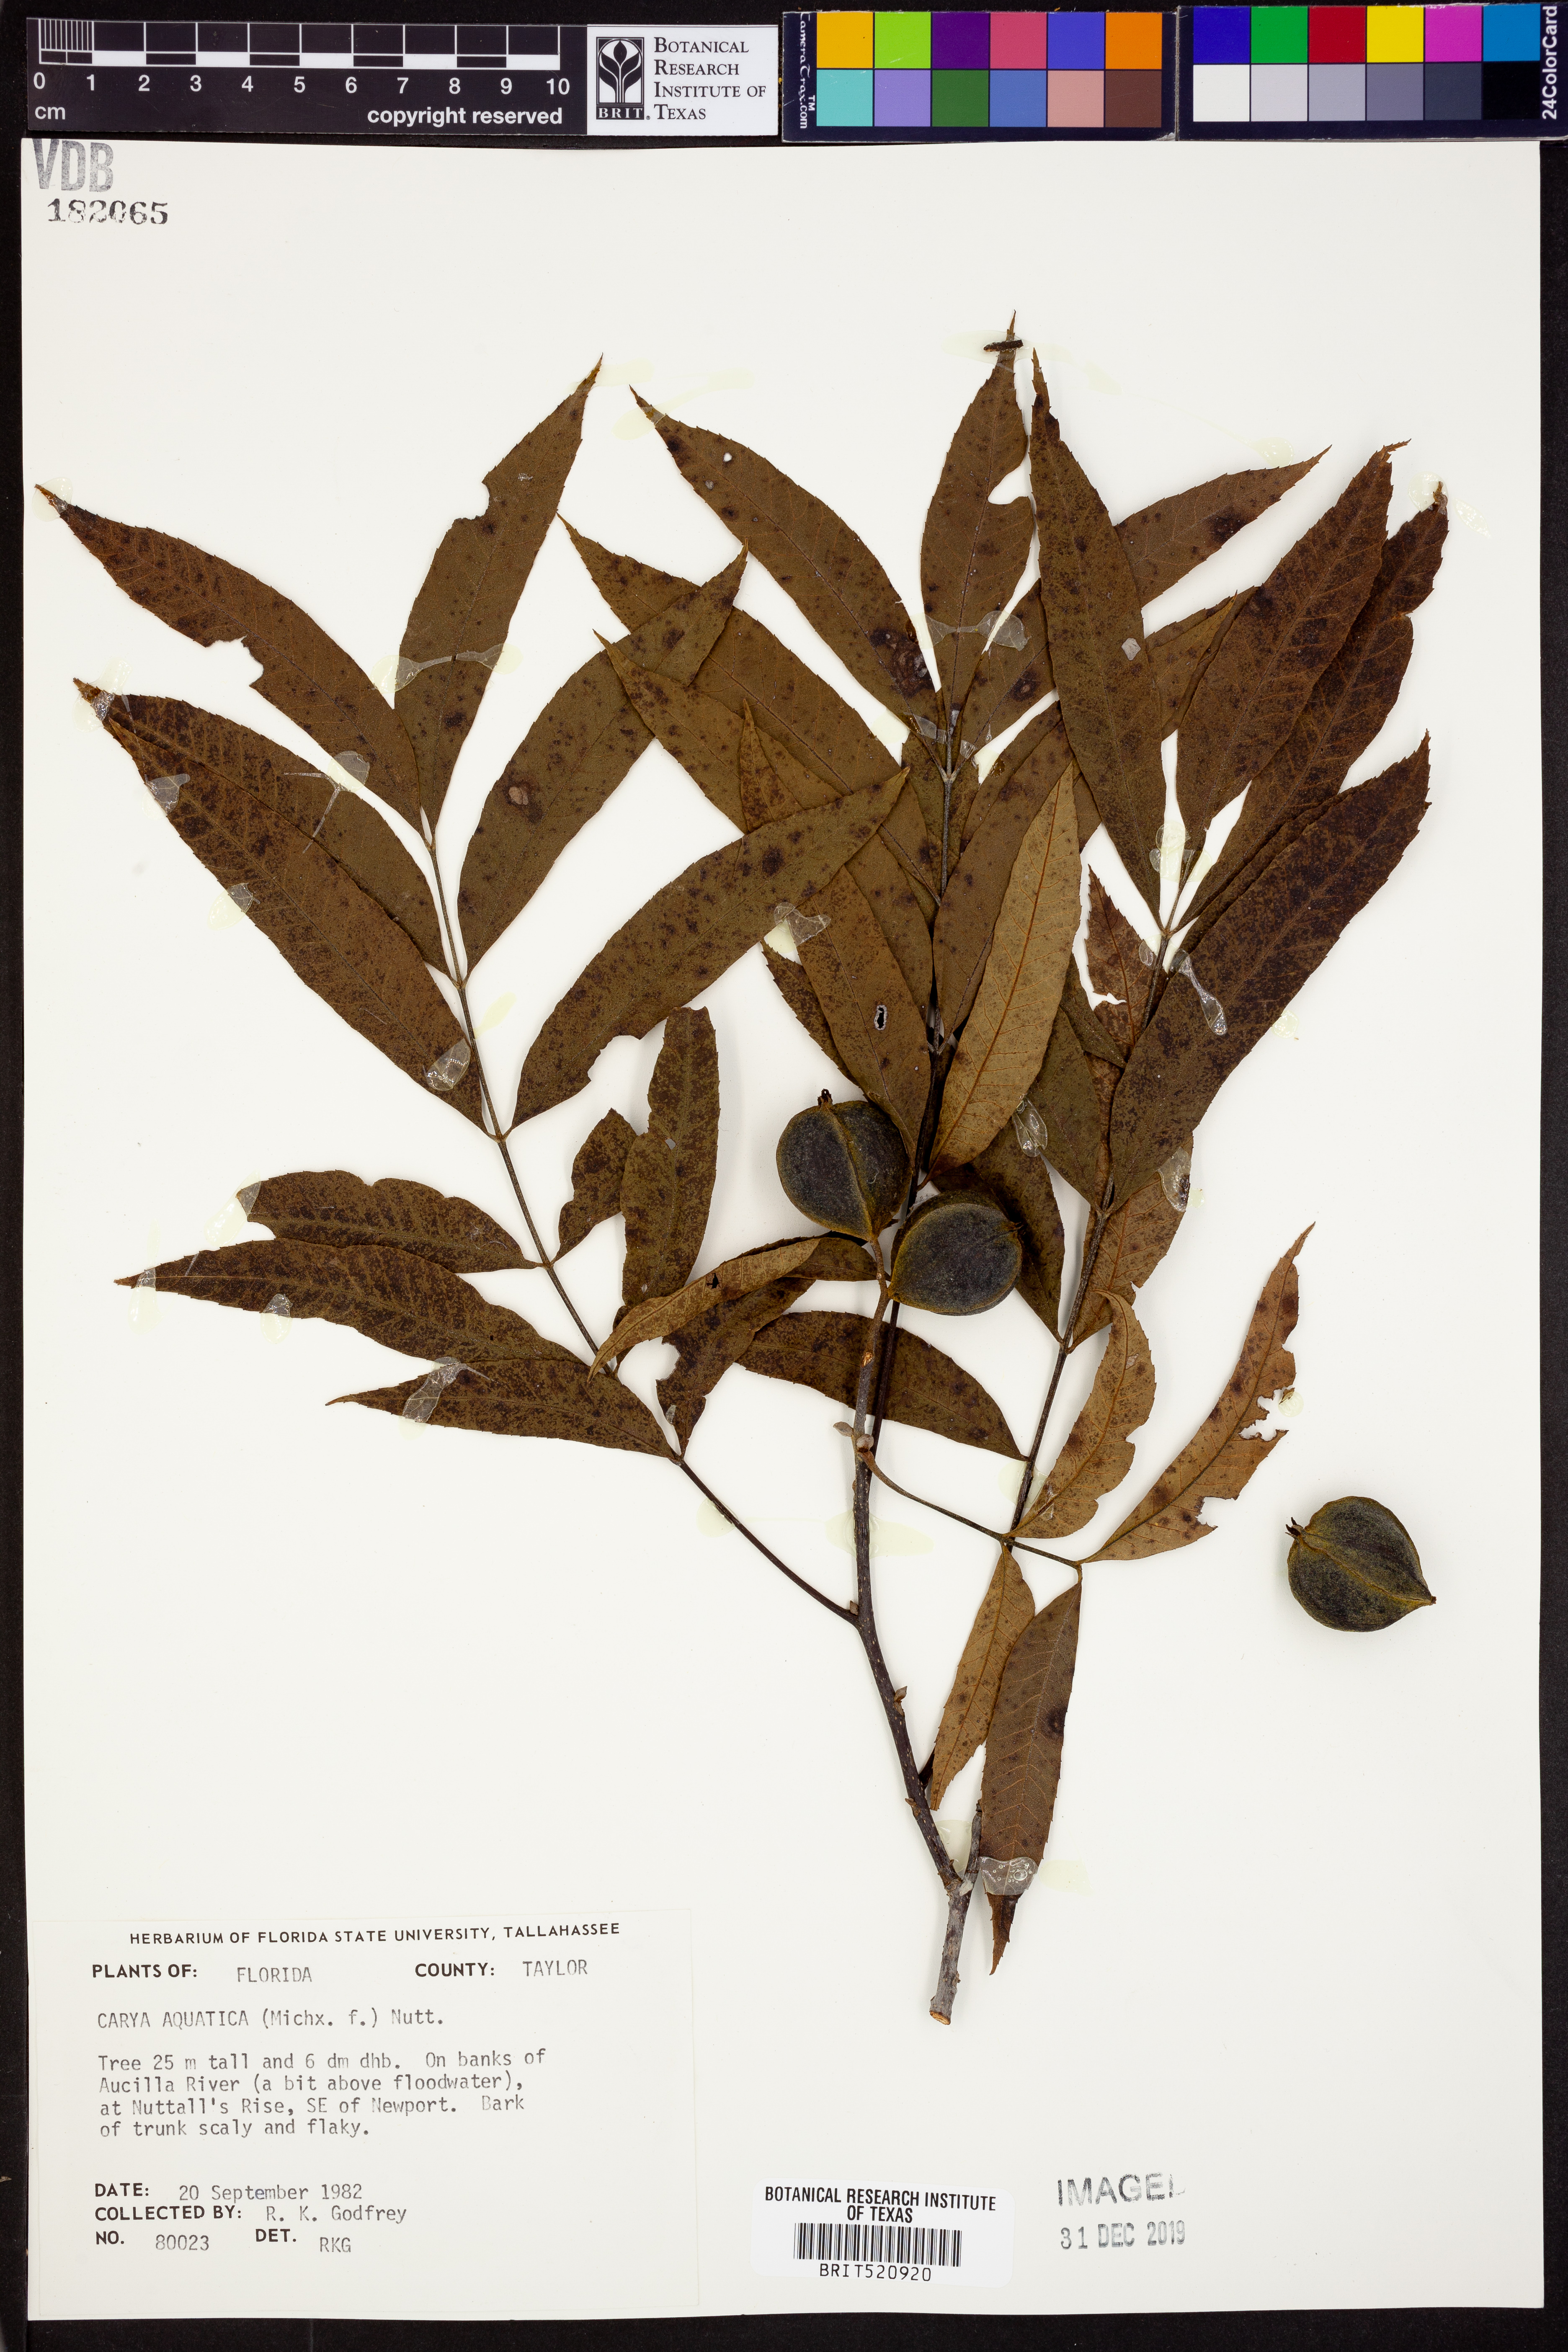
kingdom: Plantae
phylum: Tracheophyta
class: Magnoliopsida
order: Fagales
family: Juglandaceae
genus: Carya
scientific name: Carya aquatica
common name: Water hickory
